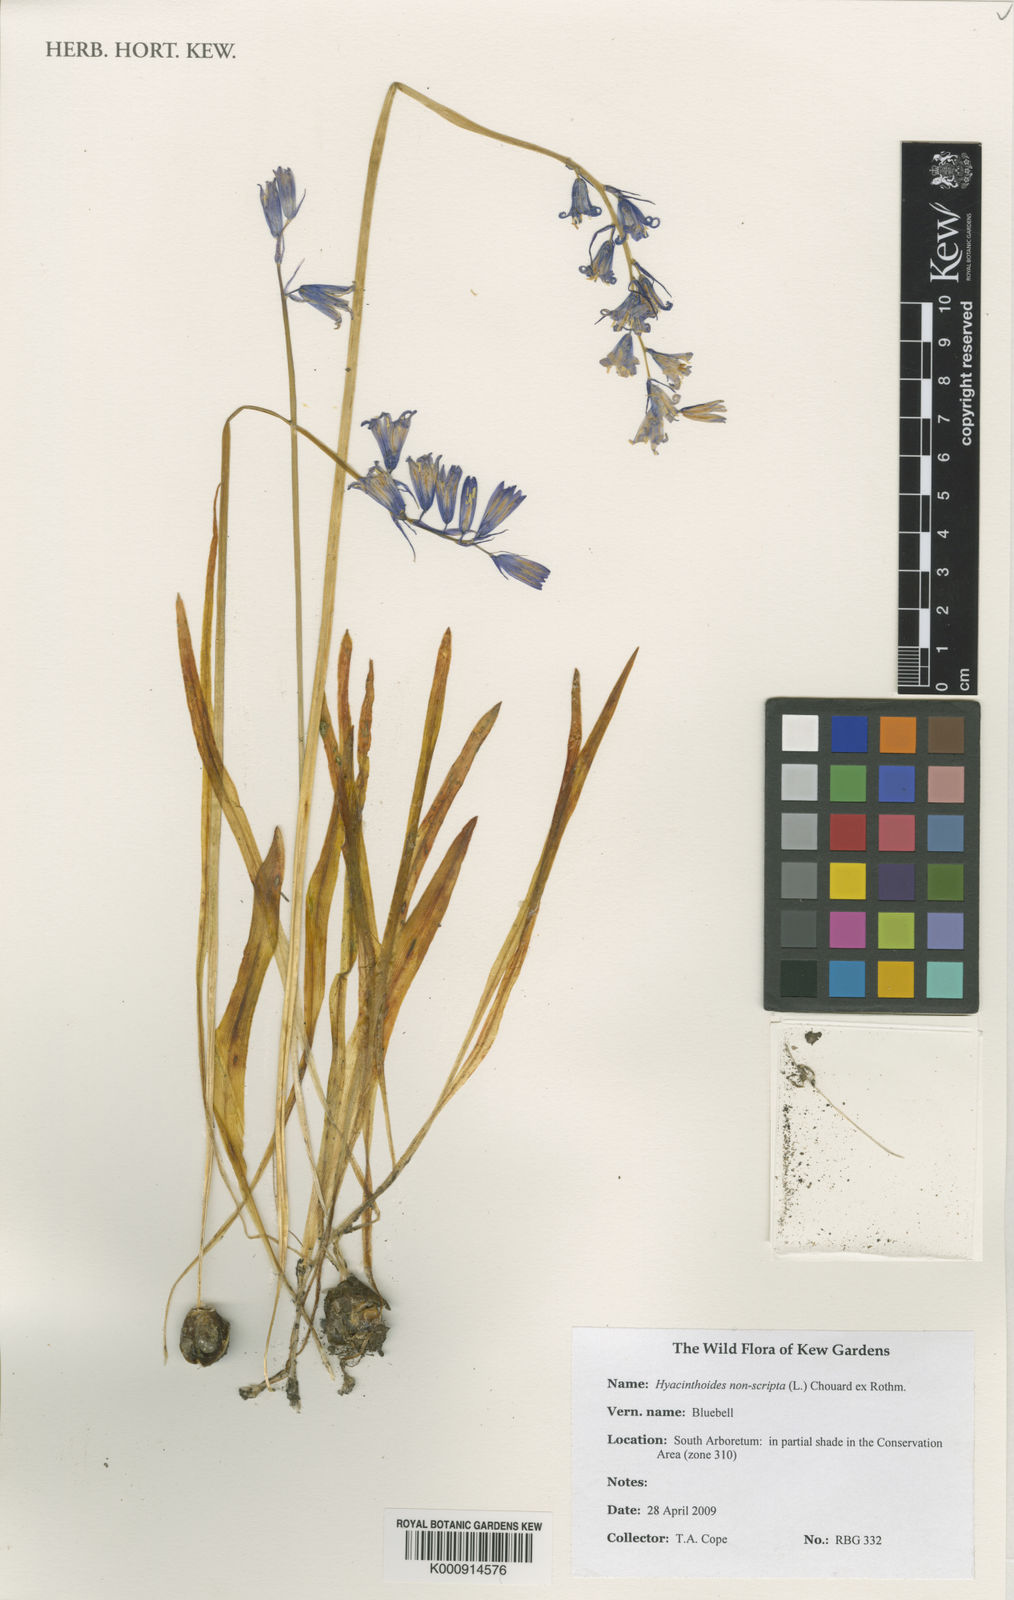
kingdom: Plantae
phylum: Tracheophyta
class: Liliopsida
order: Asparagales
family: Asparagaceae
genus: Hyacinthoides
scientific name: Hyacinthoides non-scripta
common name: Bluebell
